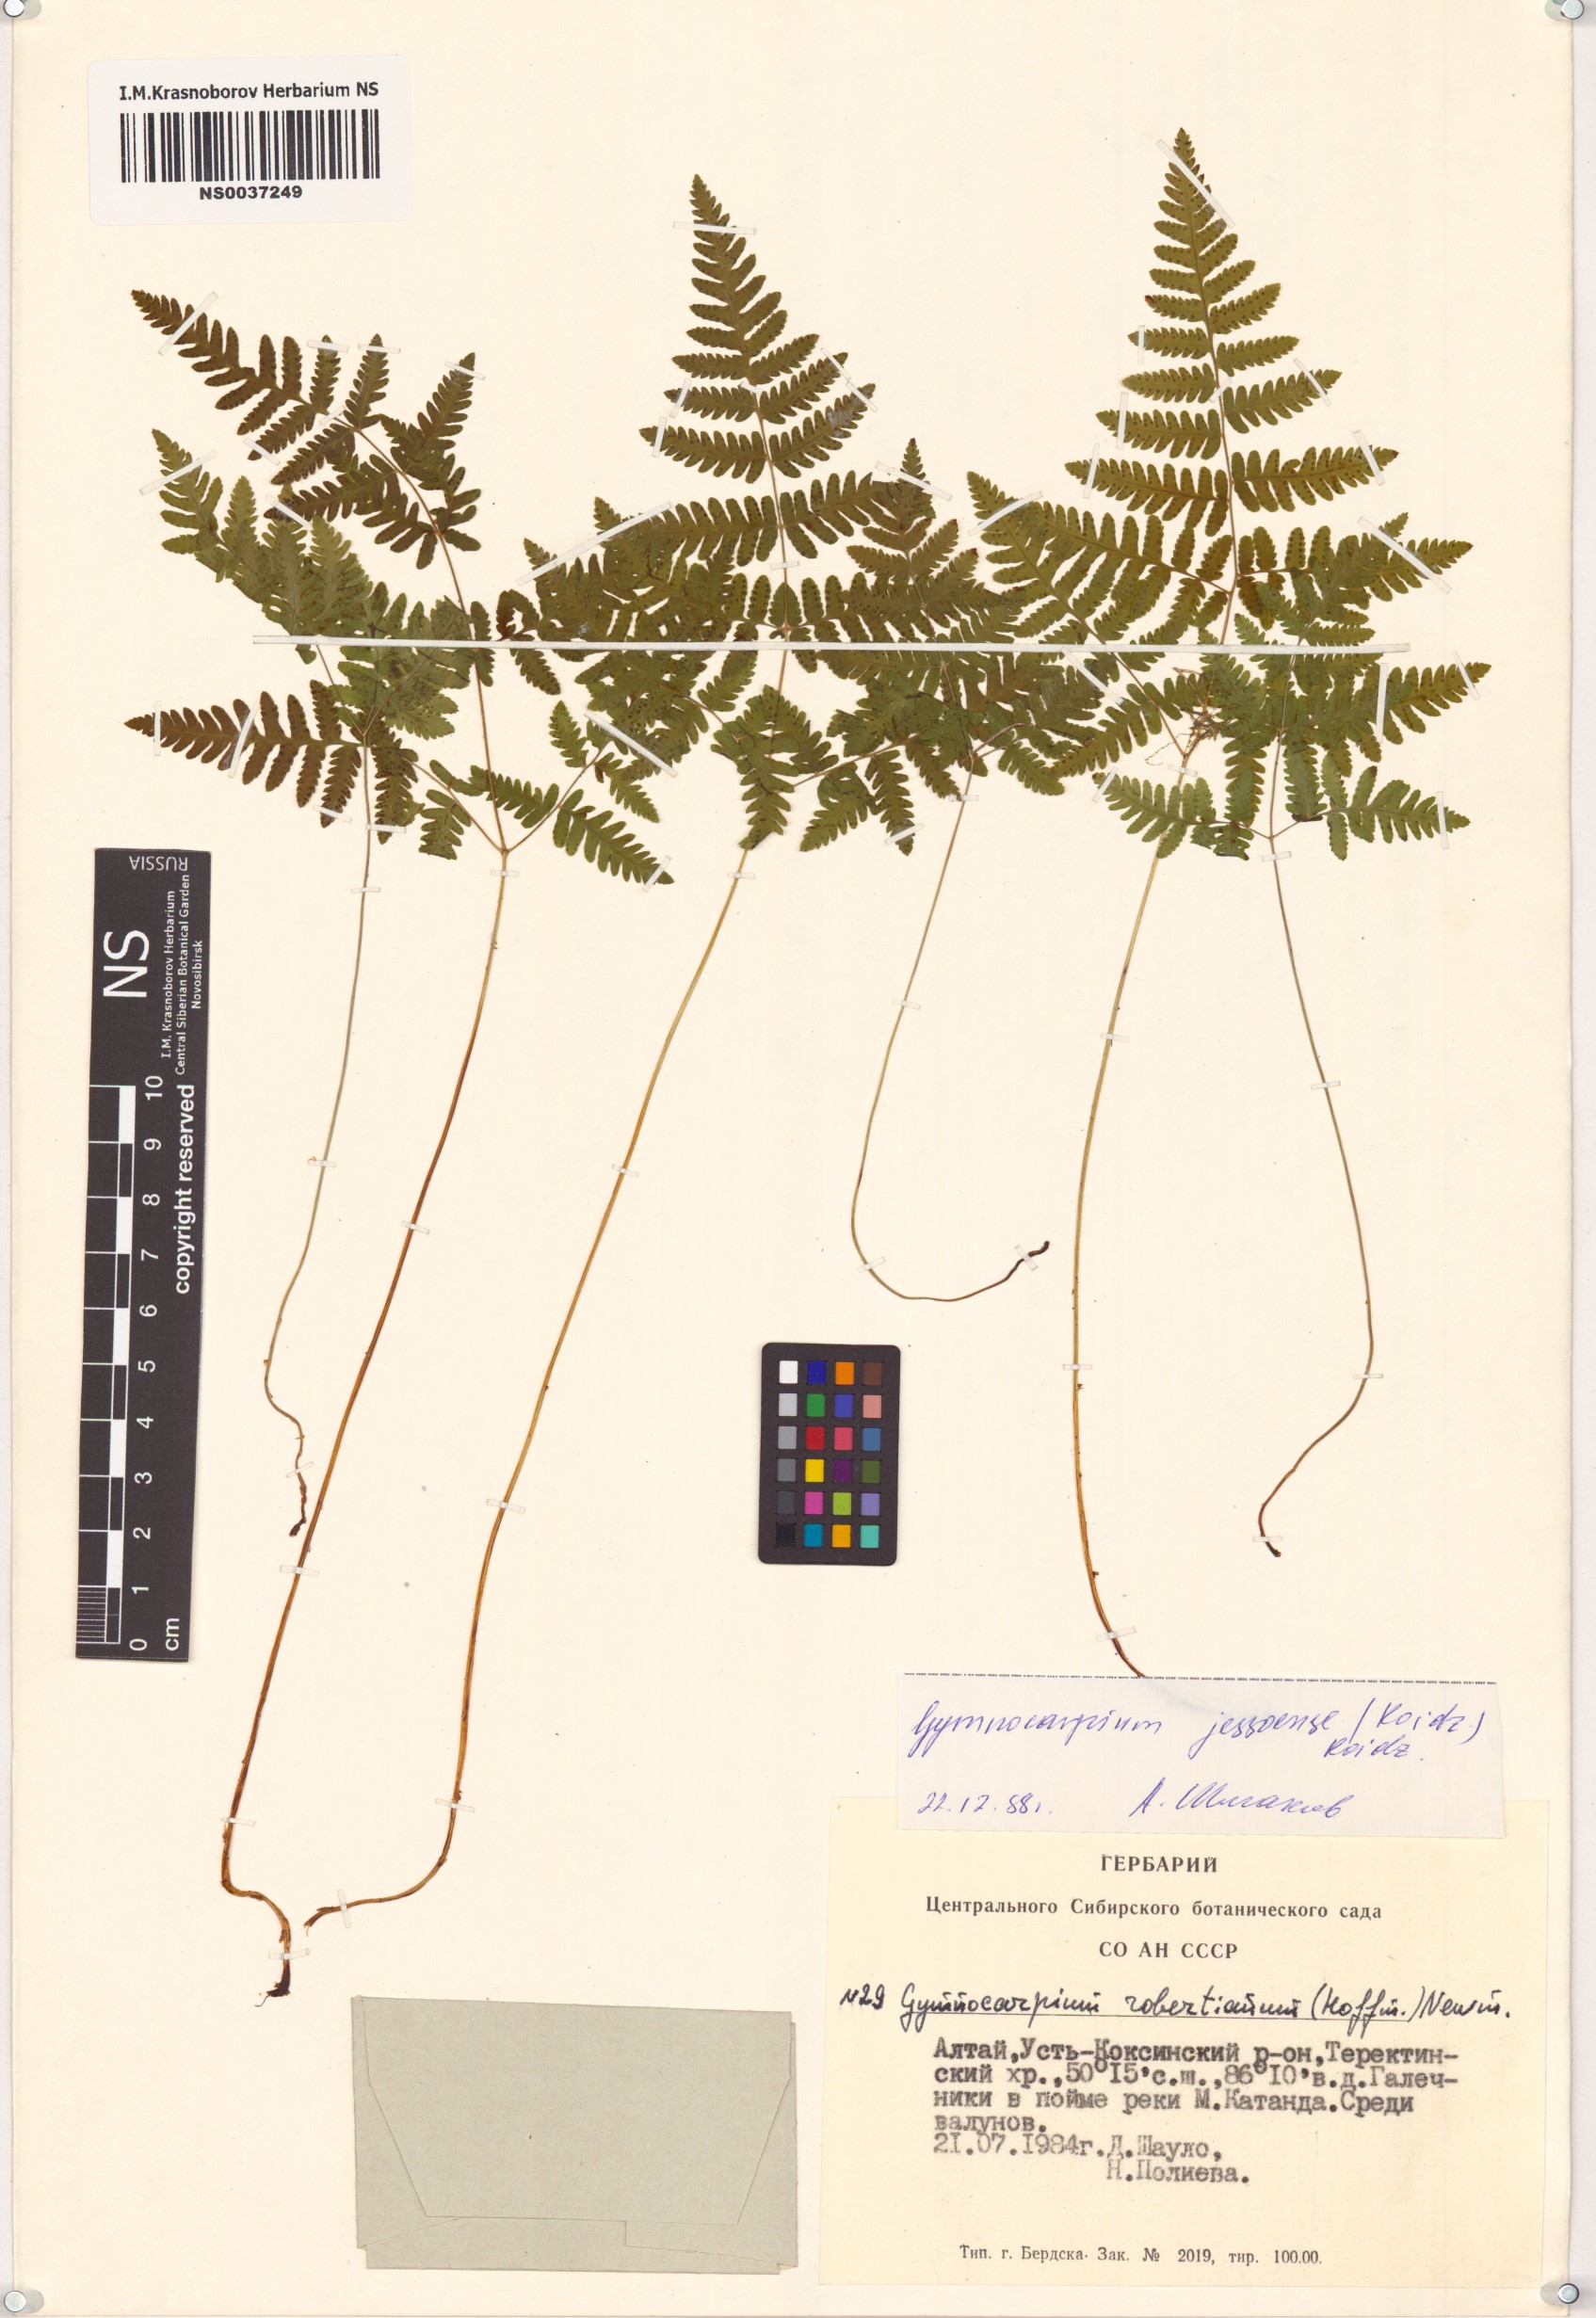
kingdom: Plantae
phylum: Tracheophyta
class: Polypodiopsida
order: Polypodiales
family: Cystopteridaceae
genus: Gymnocarpium
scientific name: Gymnocarpium jessoense
